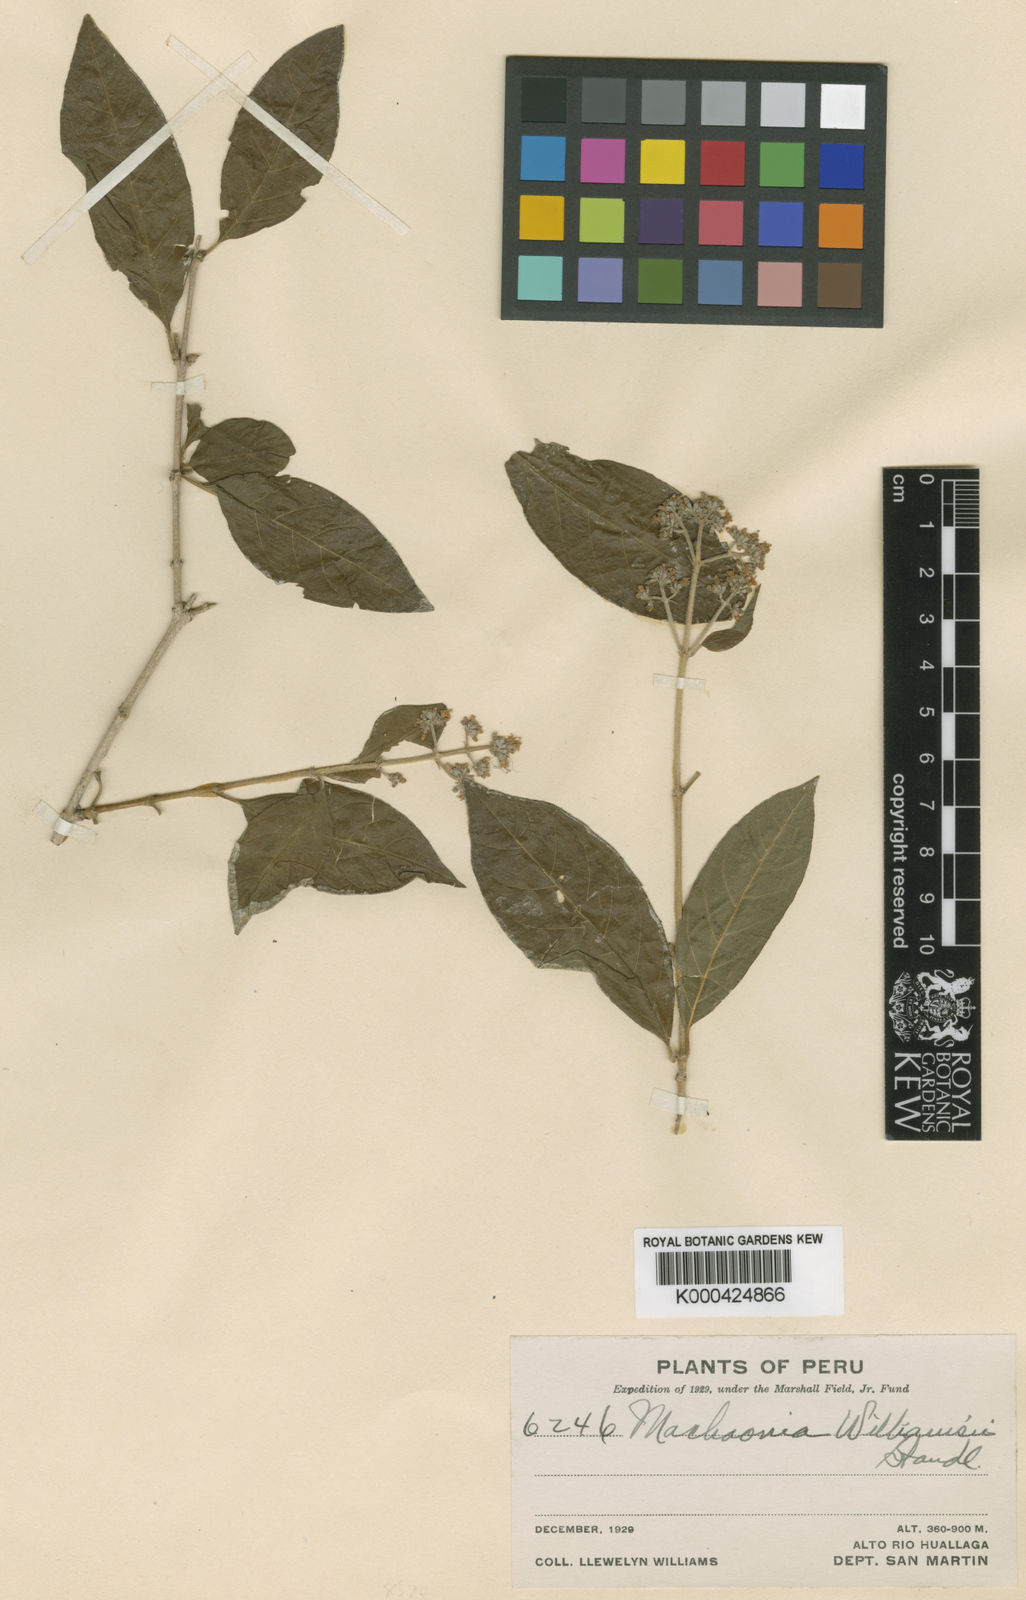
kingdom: Plantae
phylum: Tracheophyta
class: Magnoliopsida
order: Gentianales
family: Rubiaceae
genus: Machaonia
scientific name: Machaonia williamsii
